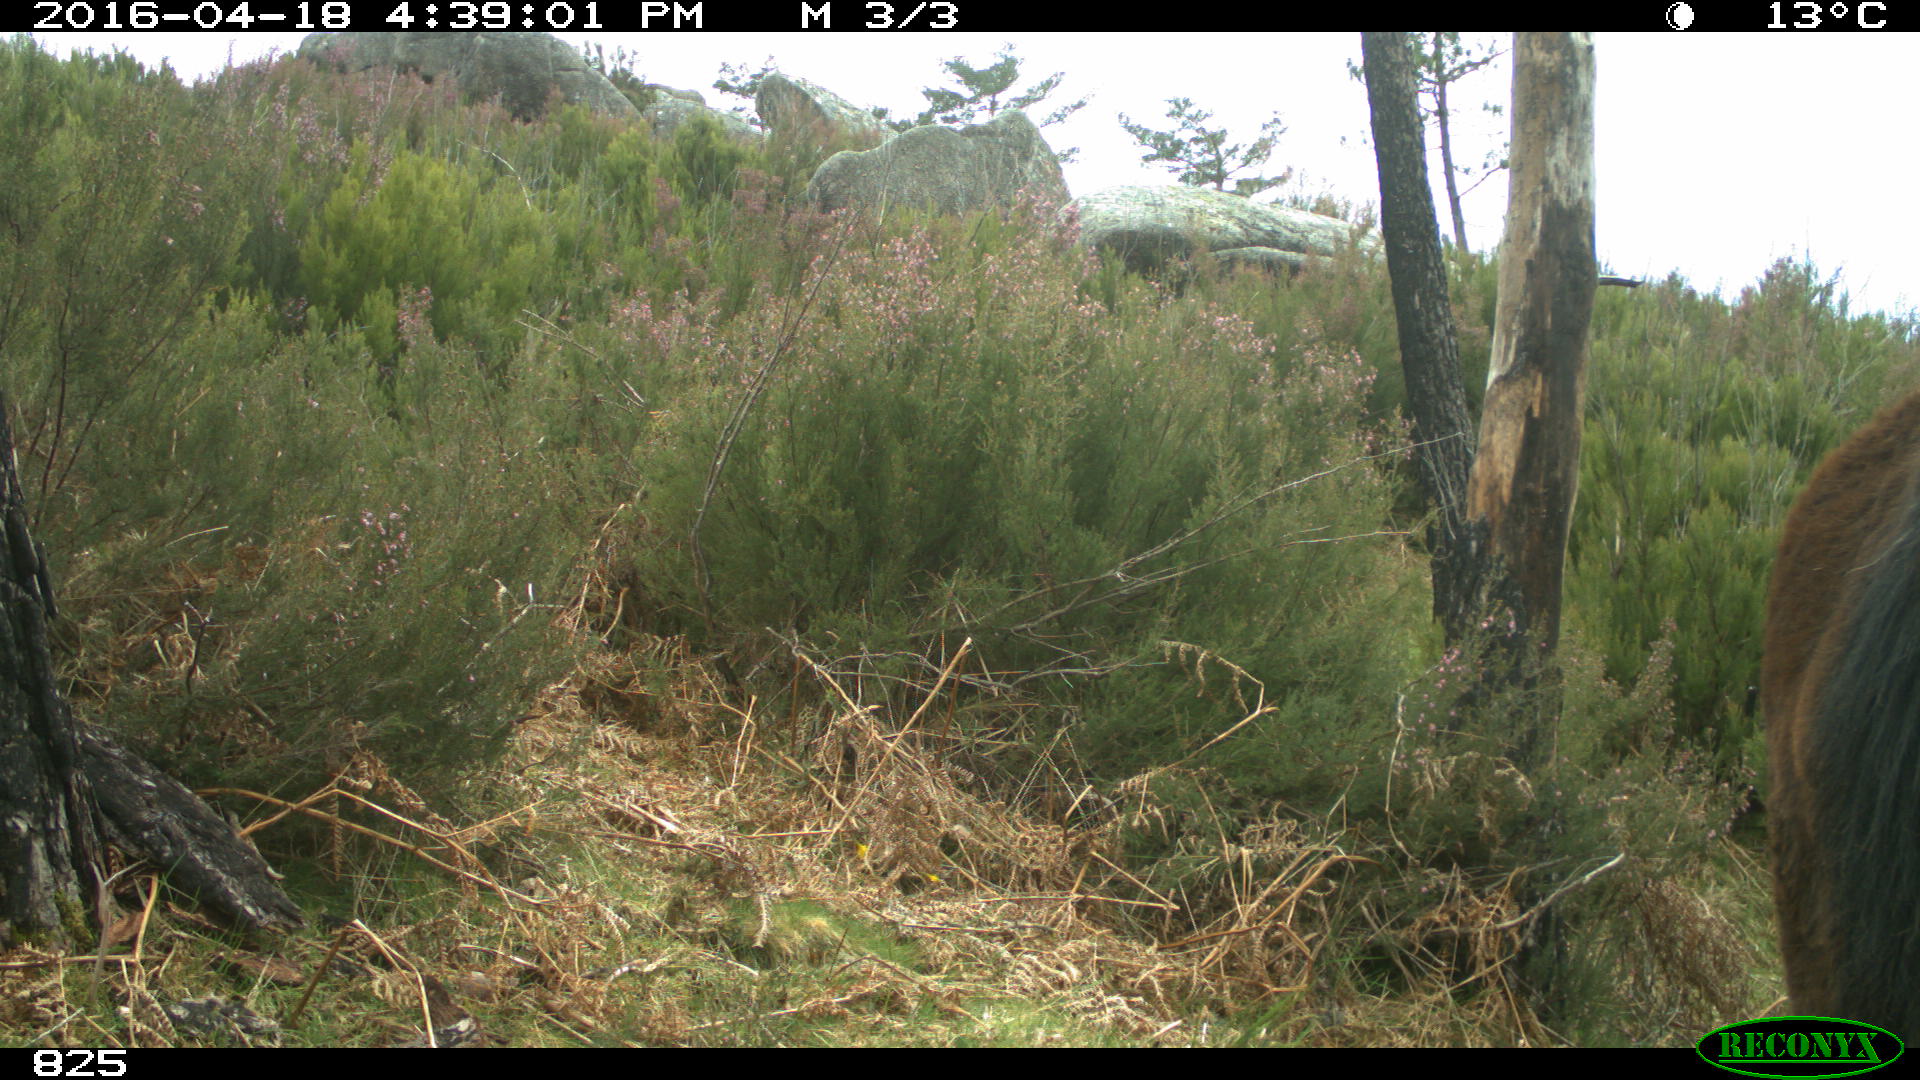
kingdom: Animalia
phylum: Chordata
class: Mammalia
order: Perissodactyla
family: Equidae
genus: Equus
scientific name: Equus caballus
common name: Horse
